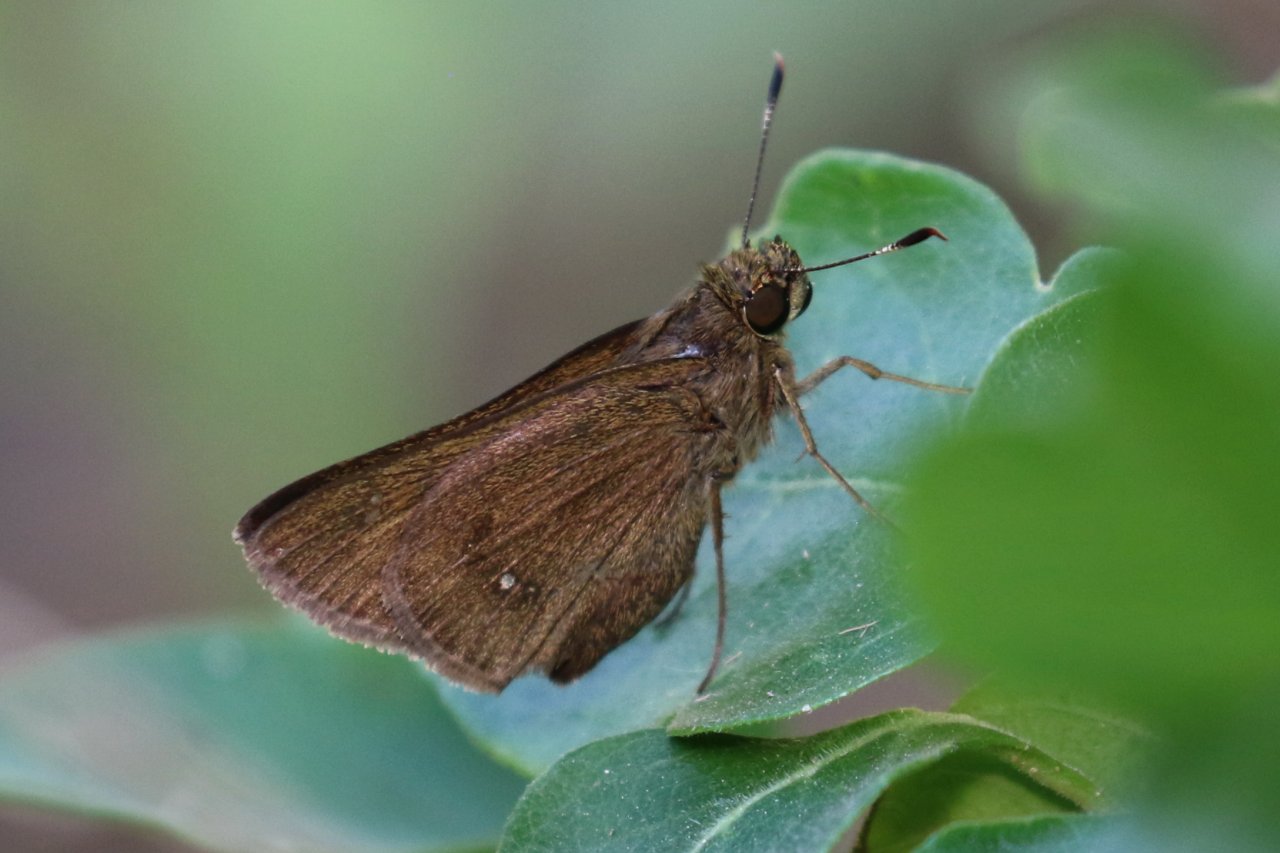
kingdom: Animalia
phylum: Arthropoda
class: Insecta
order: Lepidoptera
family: Hesperiidae
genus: Decinea
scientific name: Decinea percosius
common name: Double-dotted Skipper
